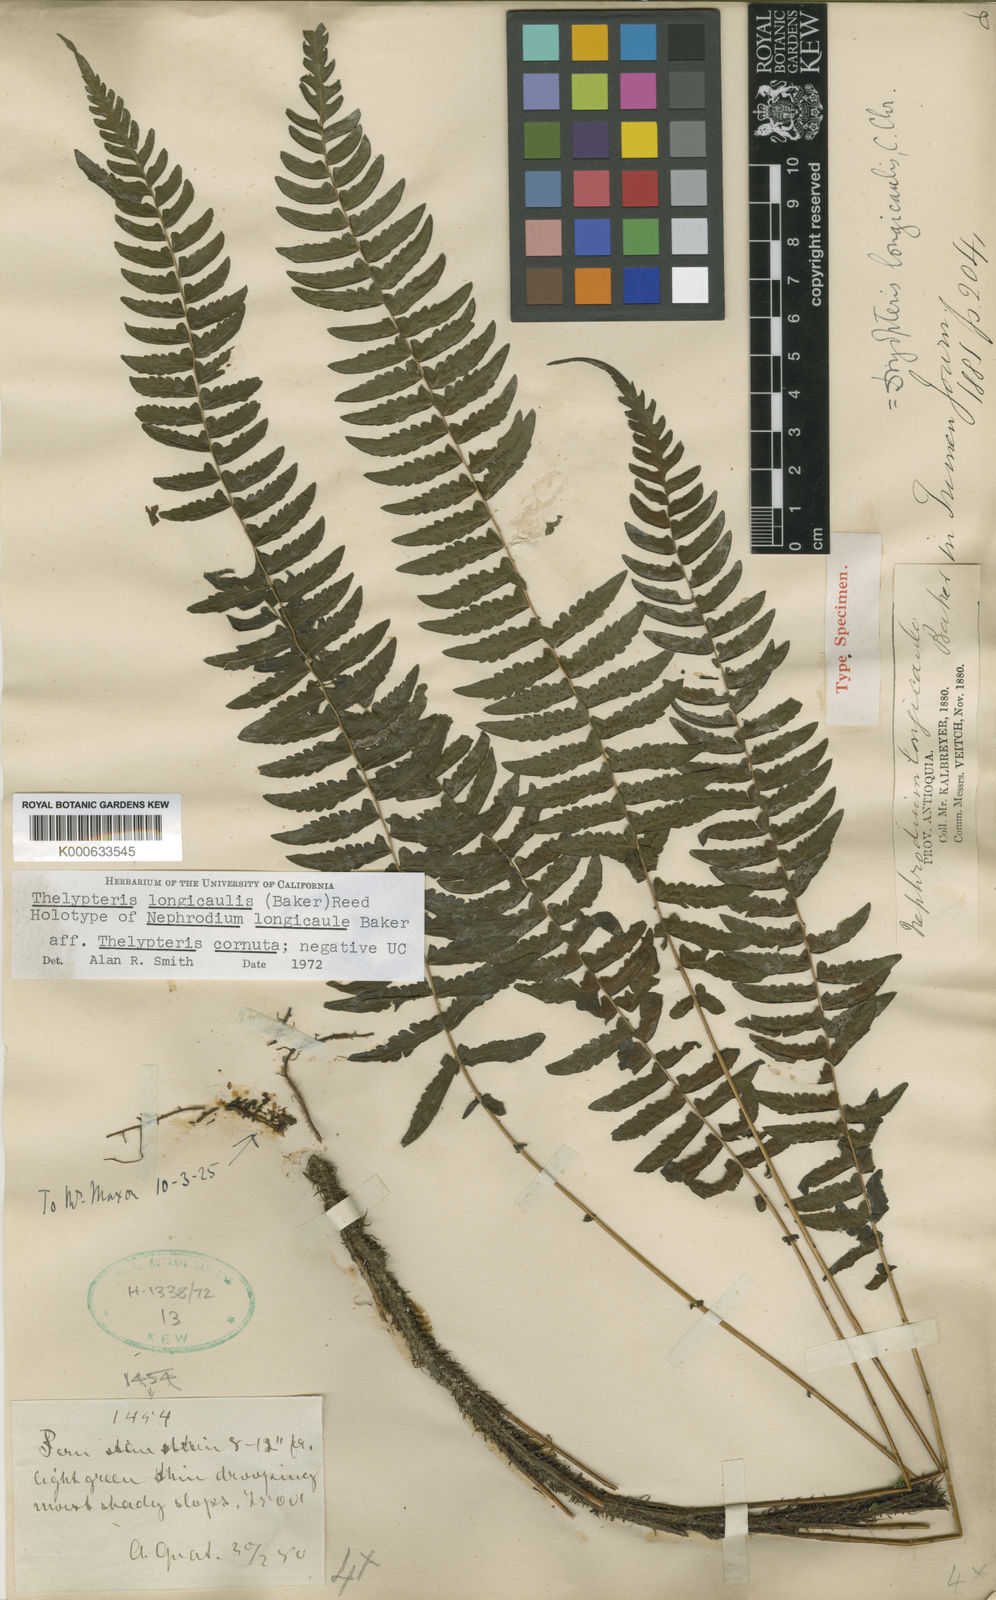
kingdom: Plantae
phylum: Tracheophyta
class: Polypodiopsida
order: Polypodiales
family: Thelypteridaceae
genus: Amauropelta
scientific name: Amauropelta longicaulis
